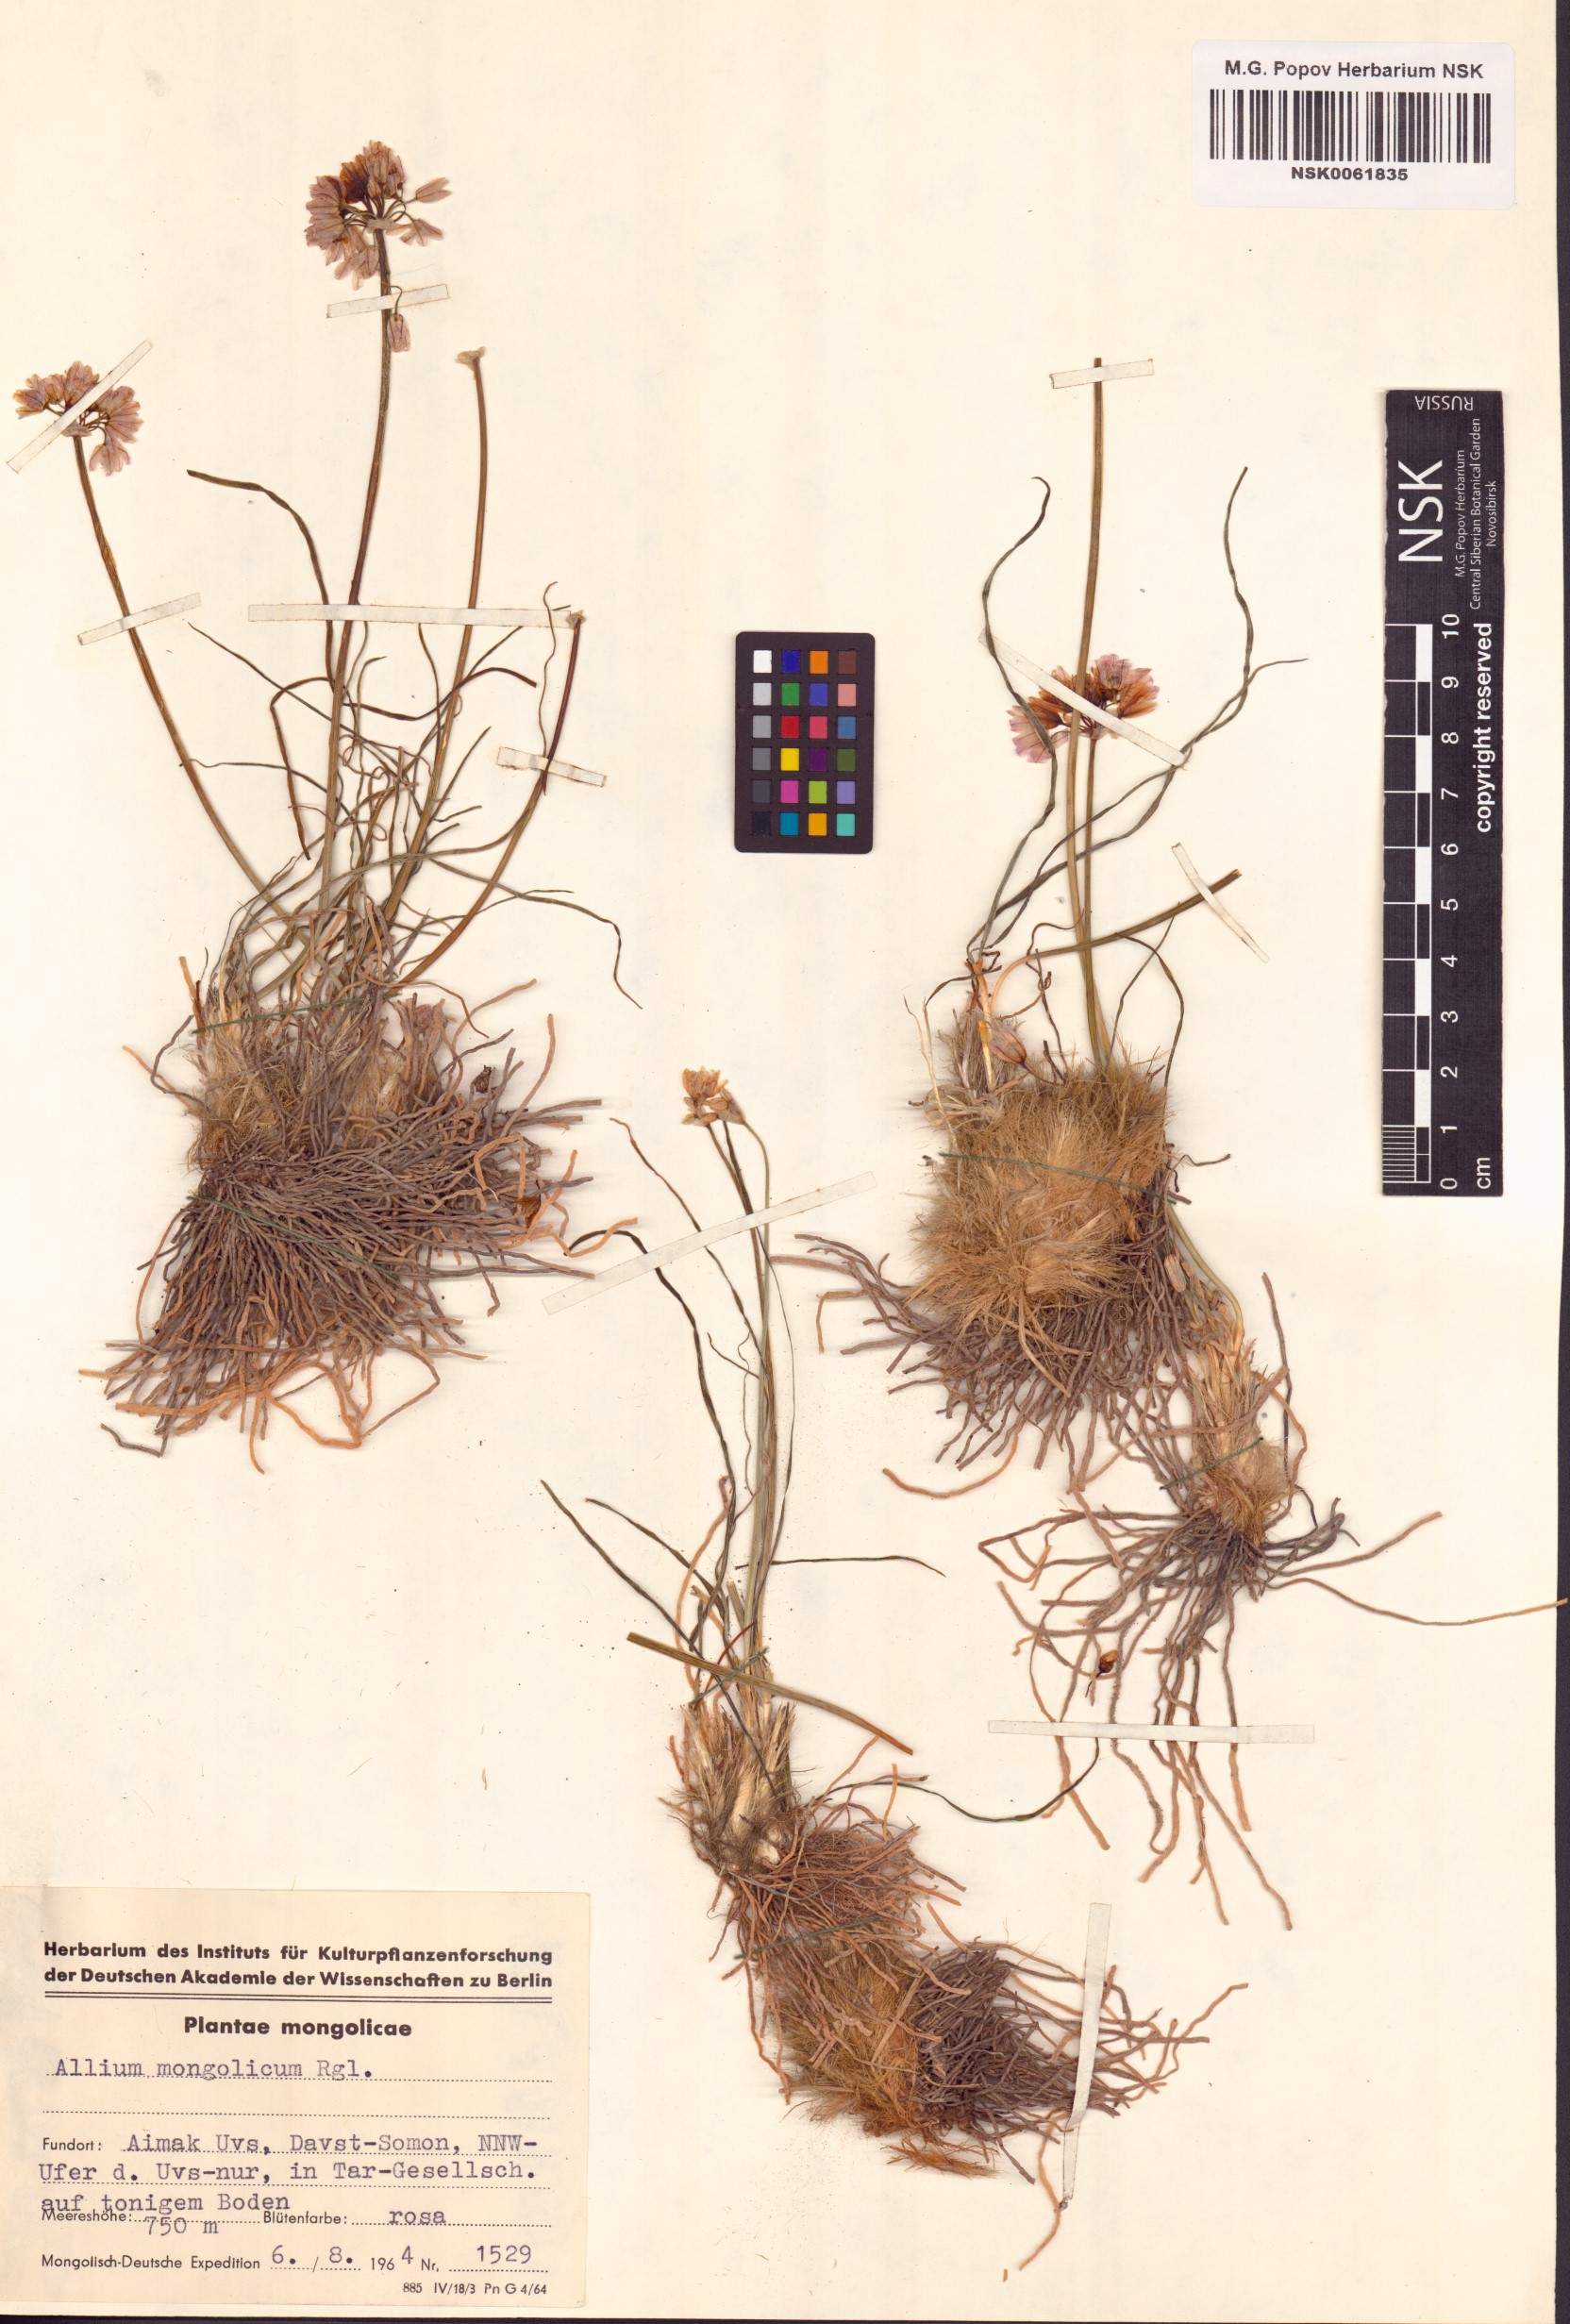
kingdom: Plantae
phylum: Tracheophyta
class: Liliopsida
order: Asparagales
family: Amaryllidaceae
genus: Allium
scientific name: Allium mongolicum
